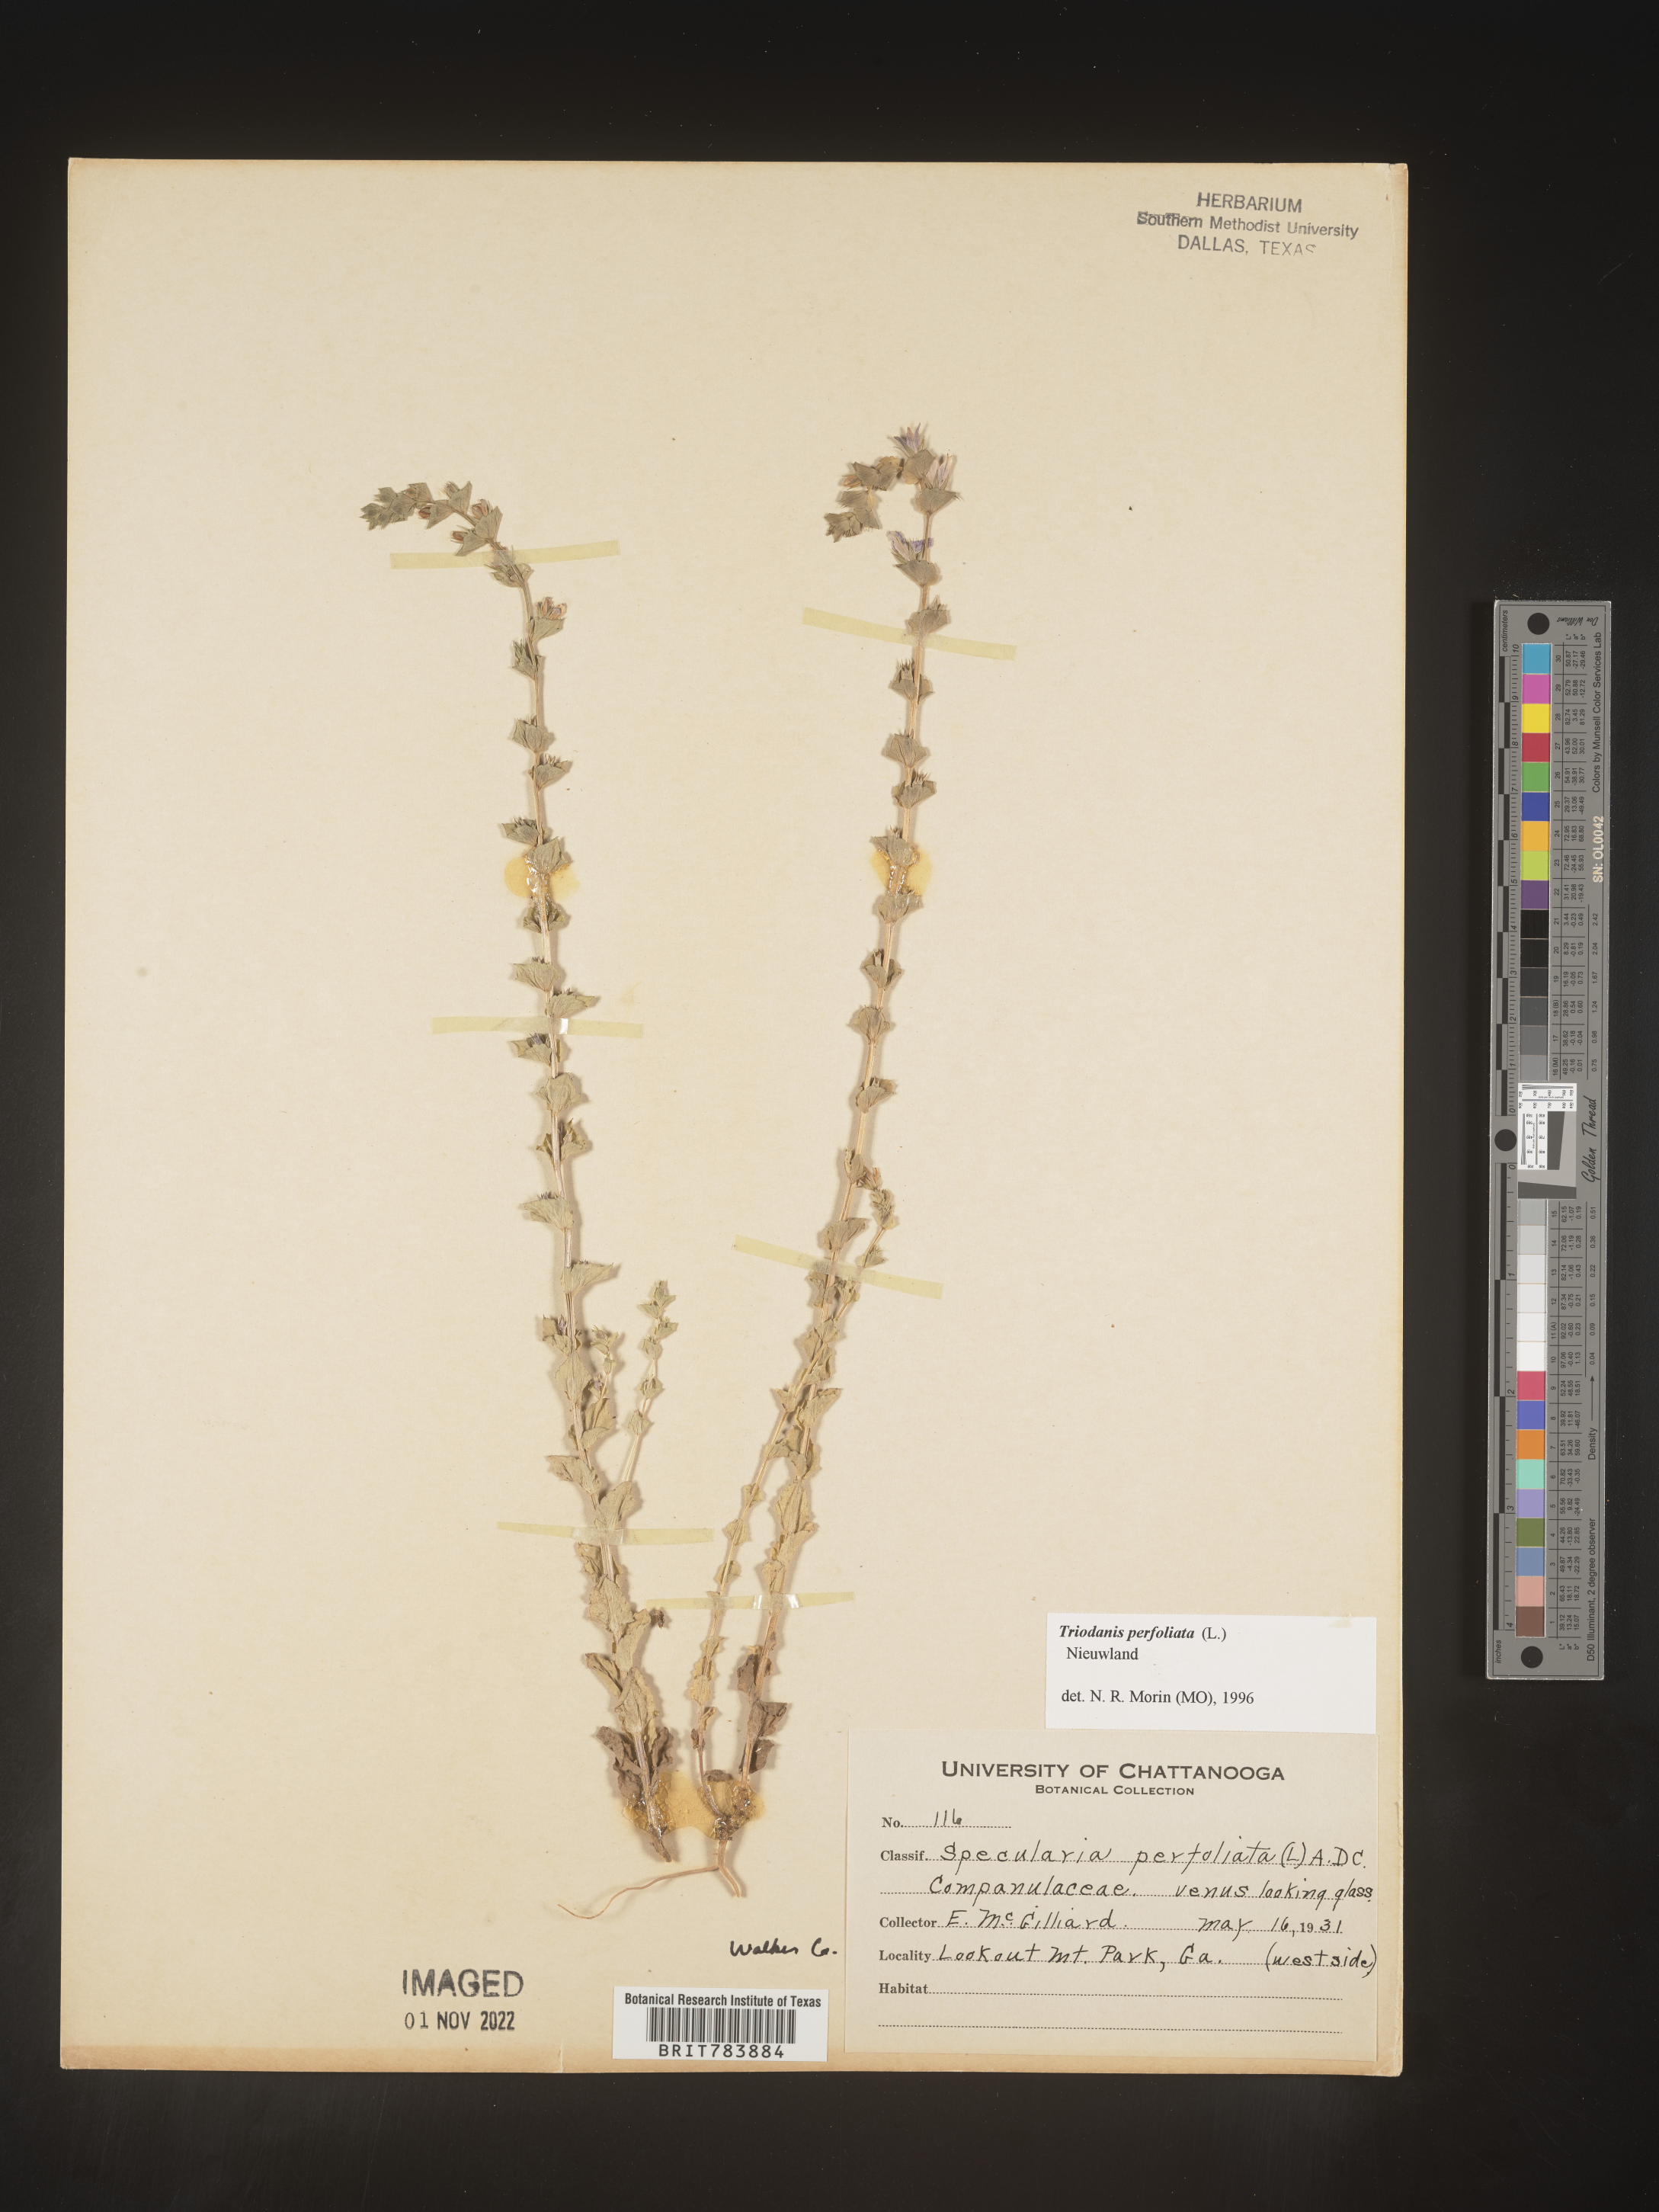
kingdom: Plantae
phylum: Tracheophyta
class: Magnoliopsida
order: Asterales
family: Campanulaceae
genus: Triodanis
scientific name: Triodanis perfoliata
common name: Clasping venus' looking-glass
